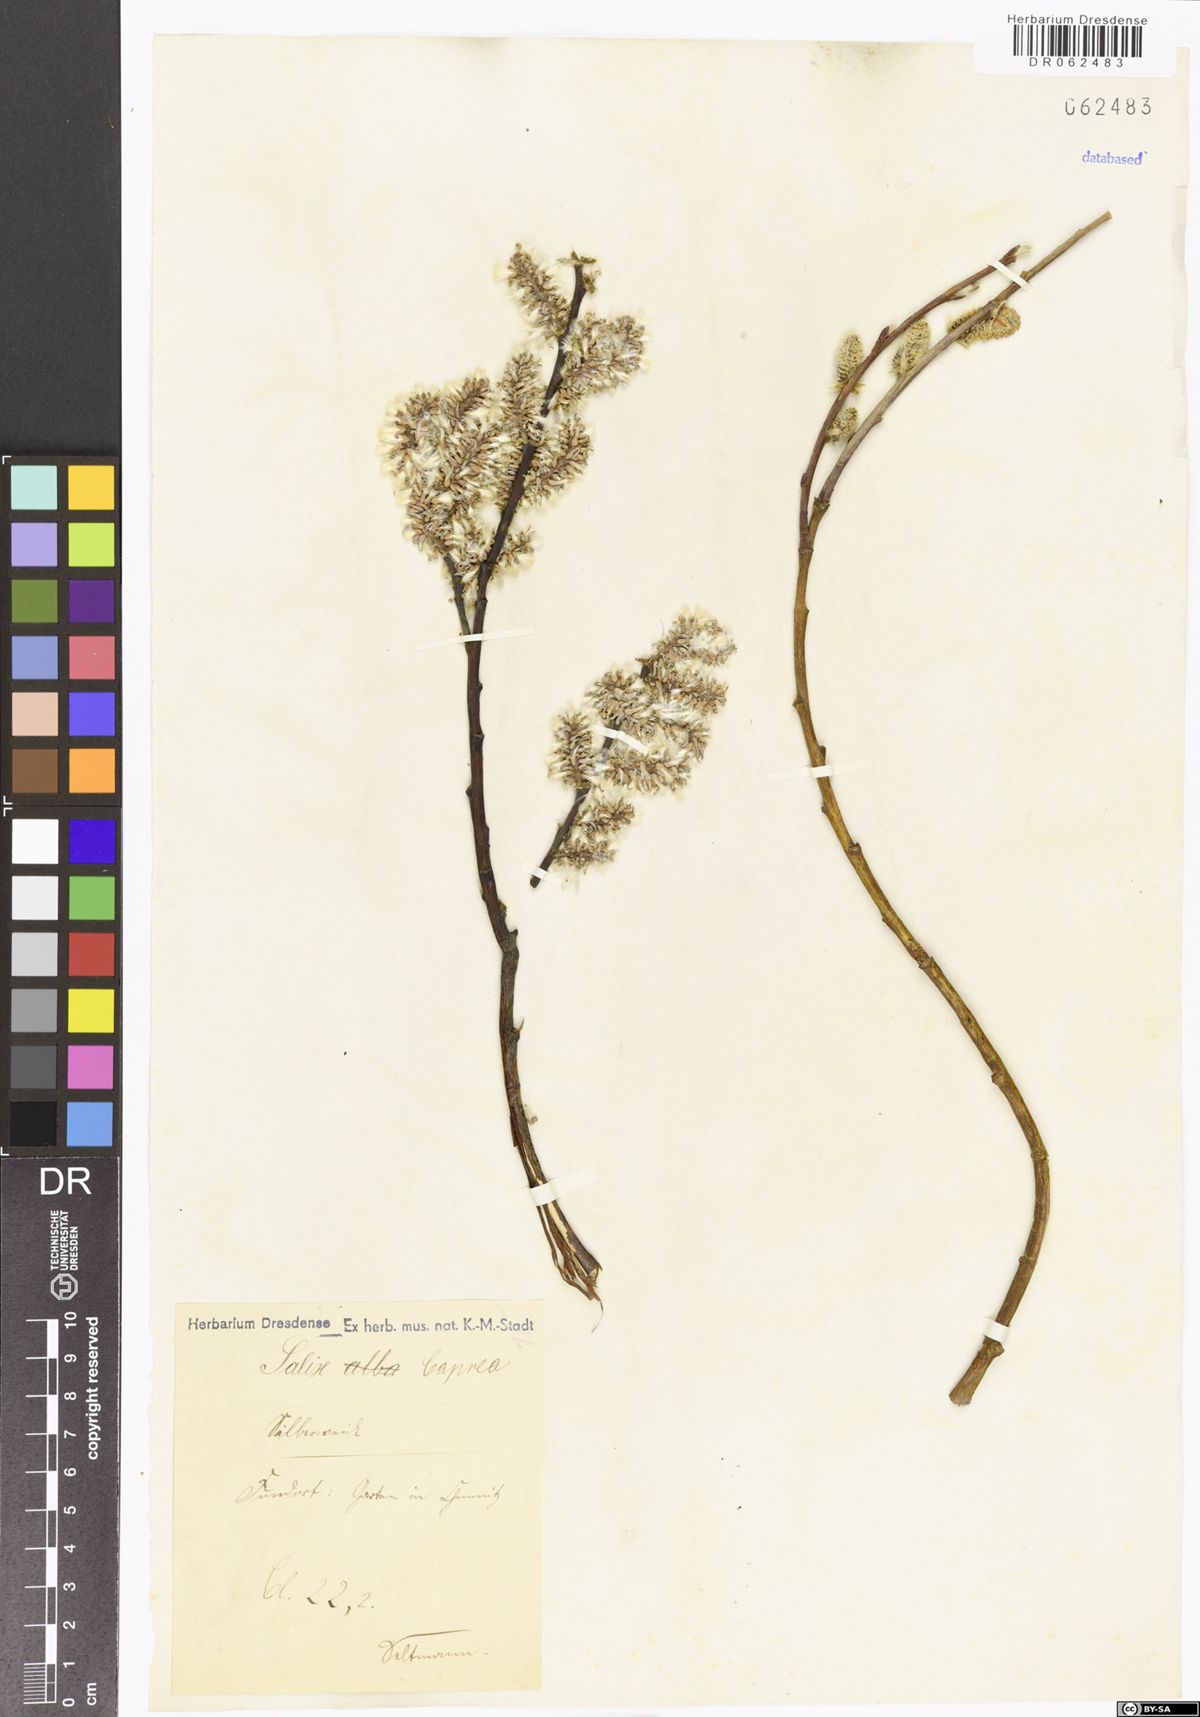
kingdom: Plantae
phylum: Tracheophyta
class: Magnoliopsida
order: Malpighiales
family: Salicaceae
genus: Salix
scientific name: Salix caprea
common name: Goat willow
